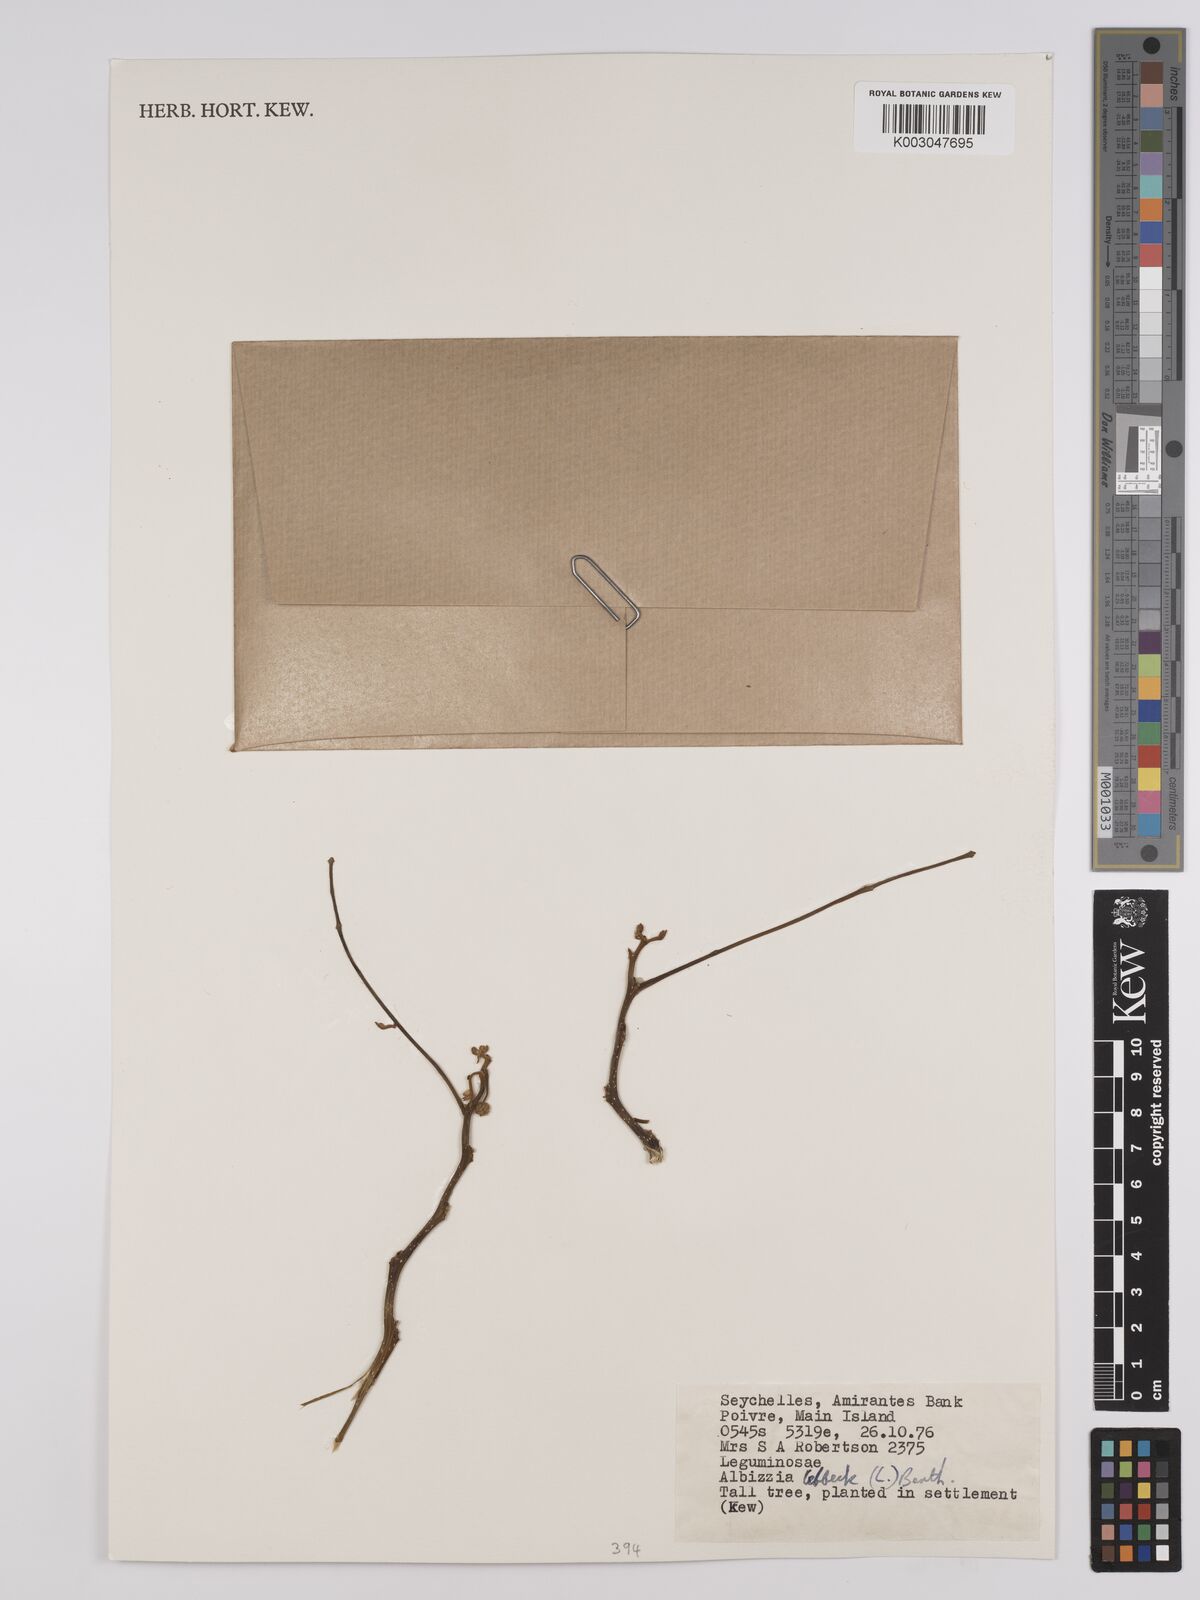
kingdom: Plantae
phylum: Tracheophyta
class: Magnoliopsida
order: Fabales
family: Fabaceae
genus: Albizia
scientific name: Albizia lebbeck
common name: Woman's tongue
